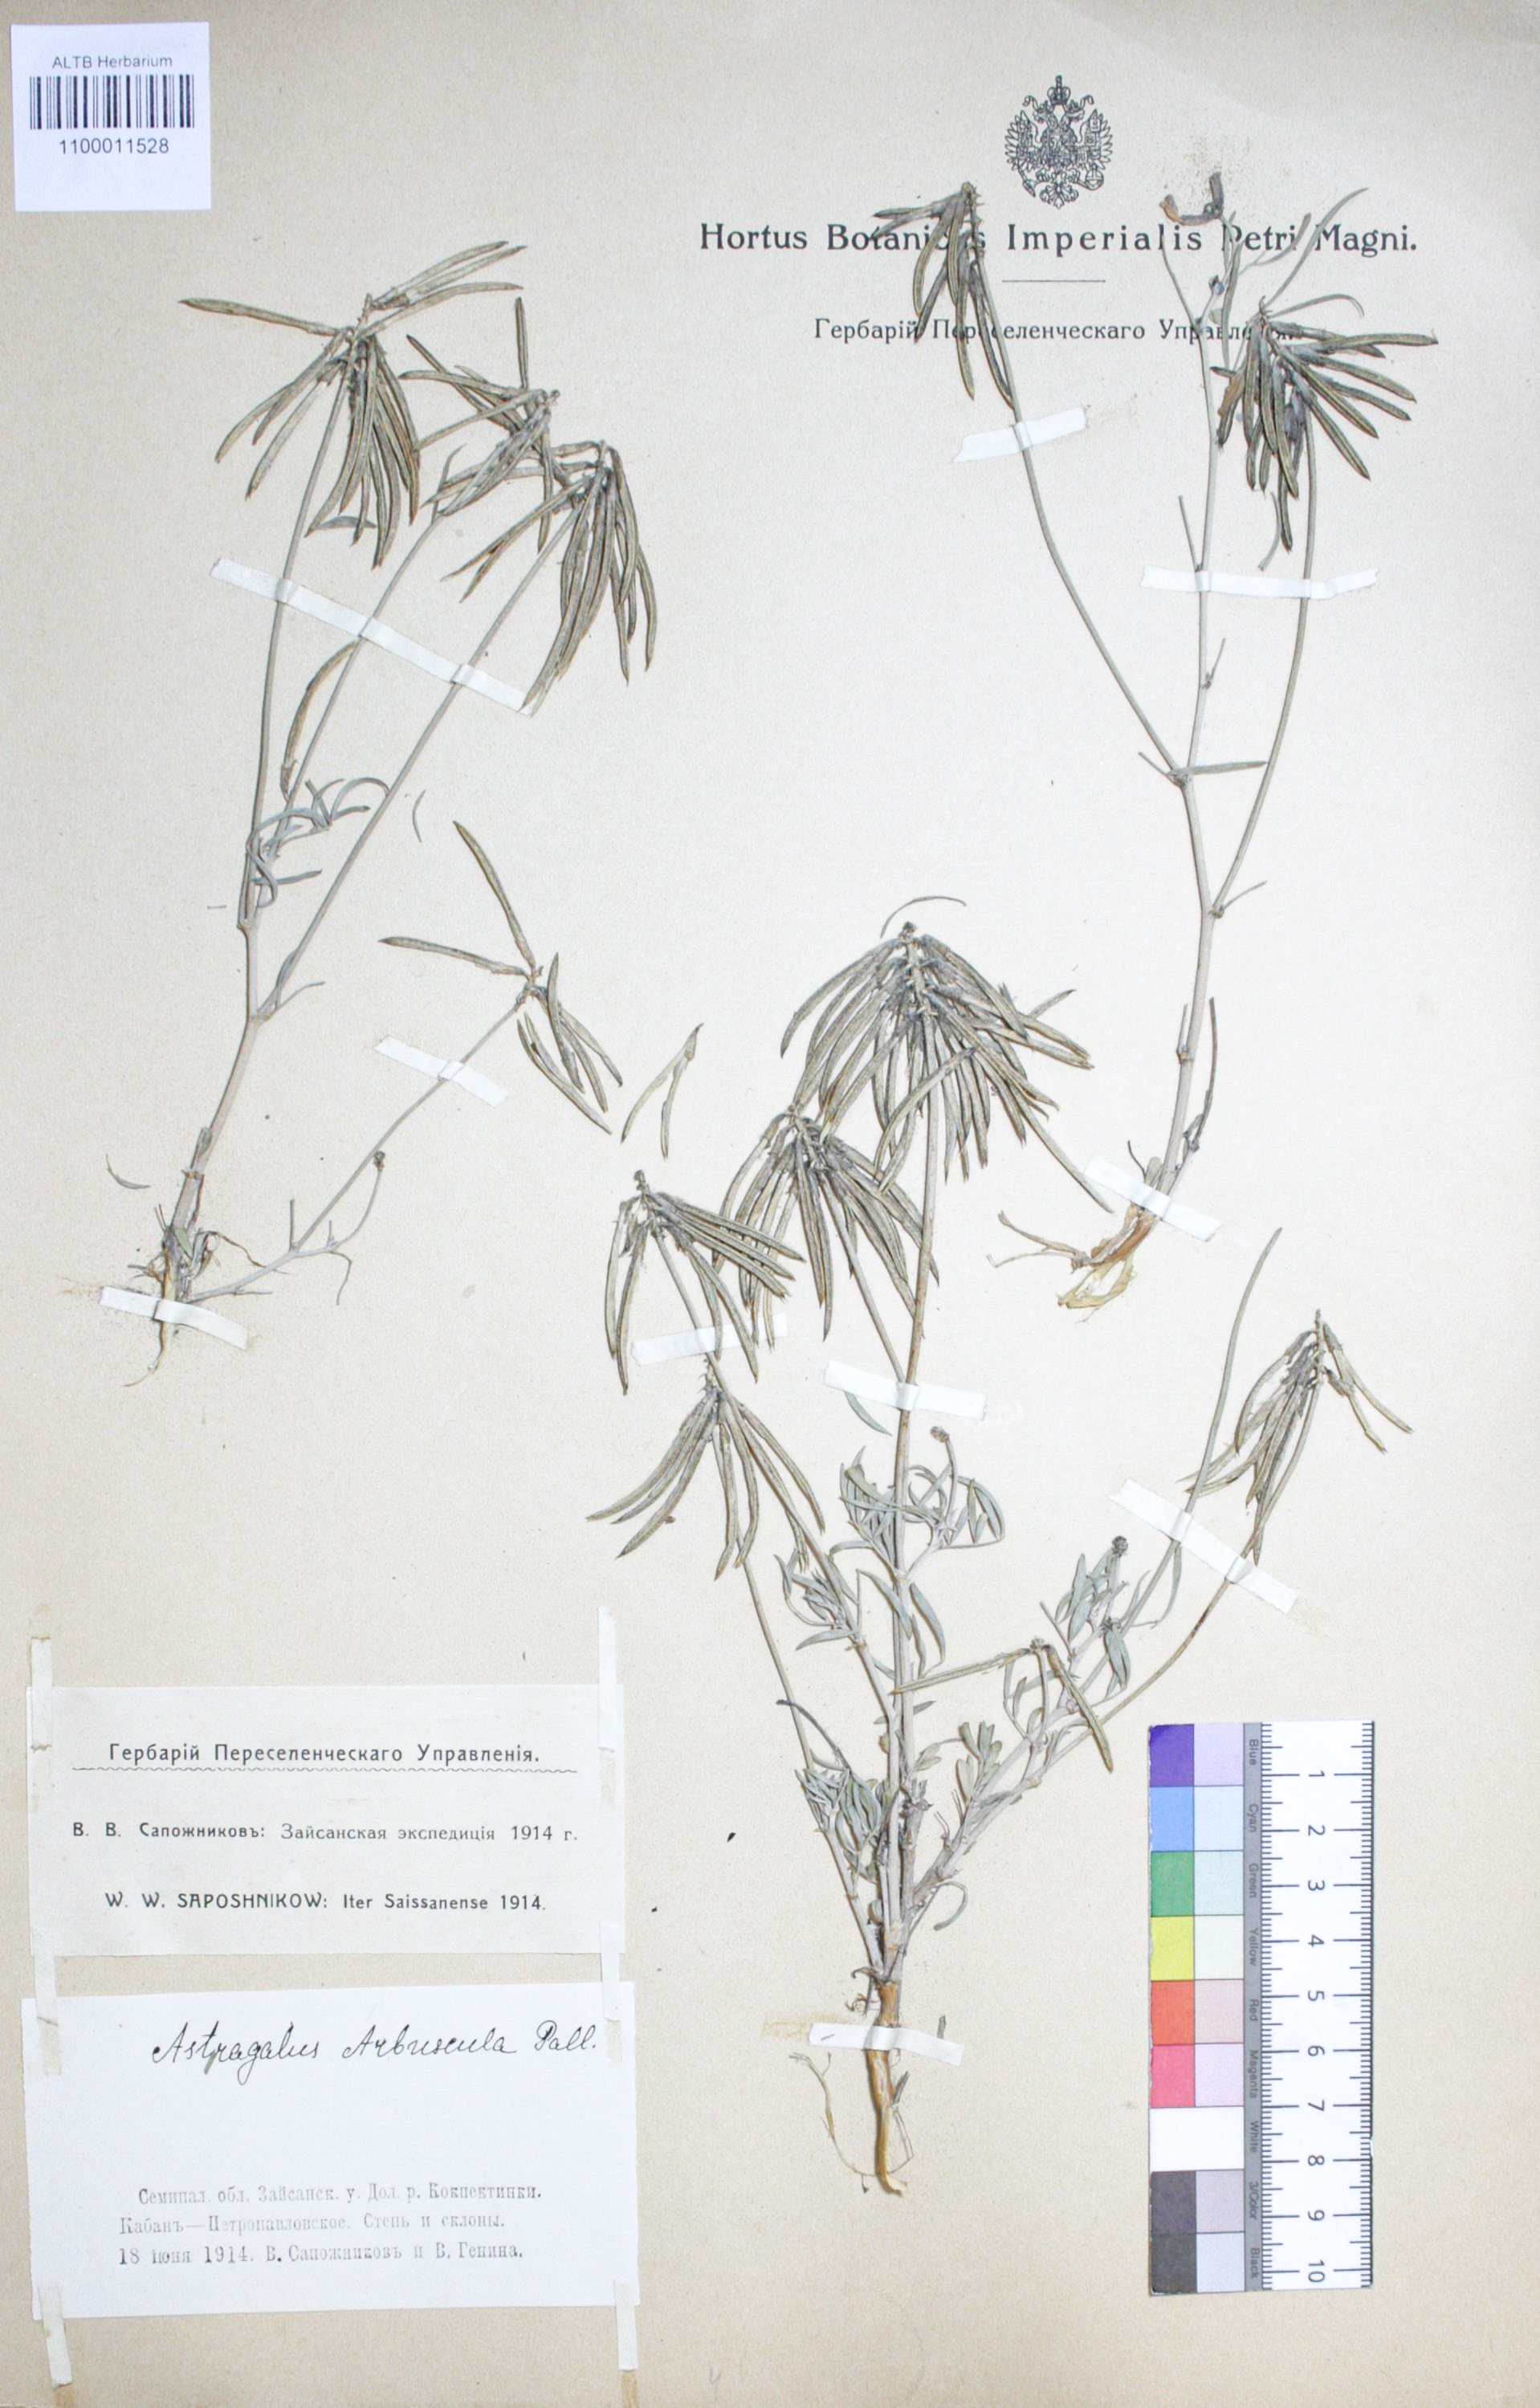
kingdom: Plantae
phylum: Tracheophyta
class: Magnoliopsida
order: Fabales
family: Fabaceae
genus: Astragalus
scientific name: Astragalus arbuscula
